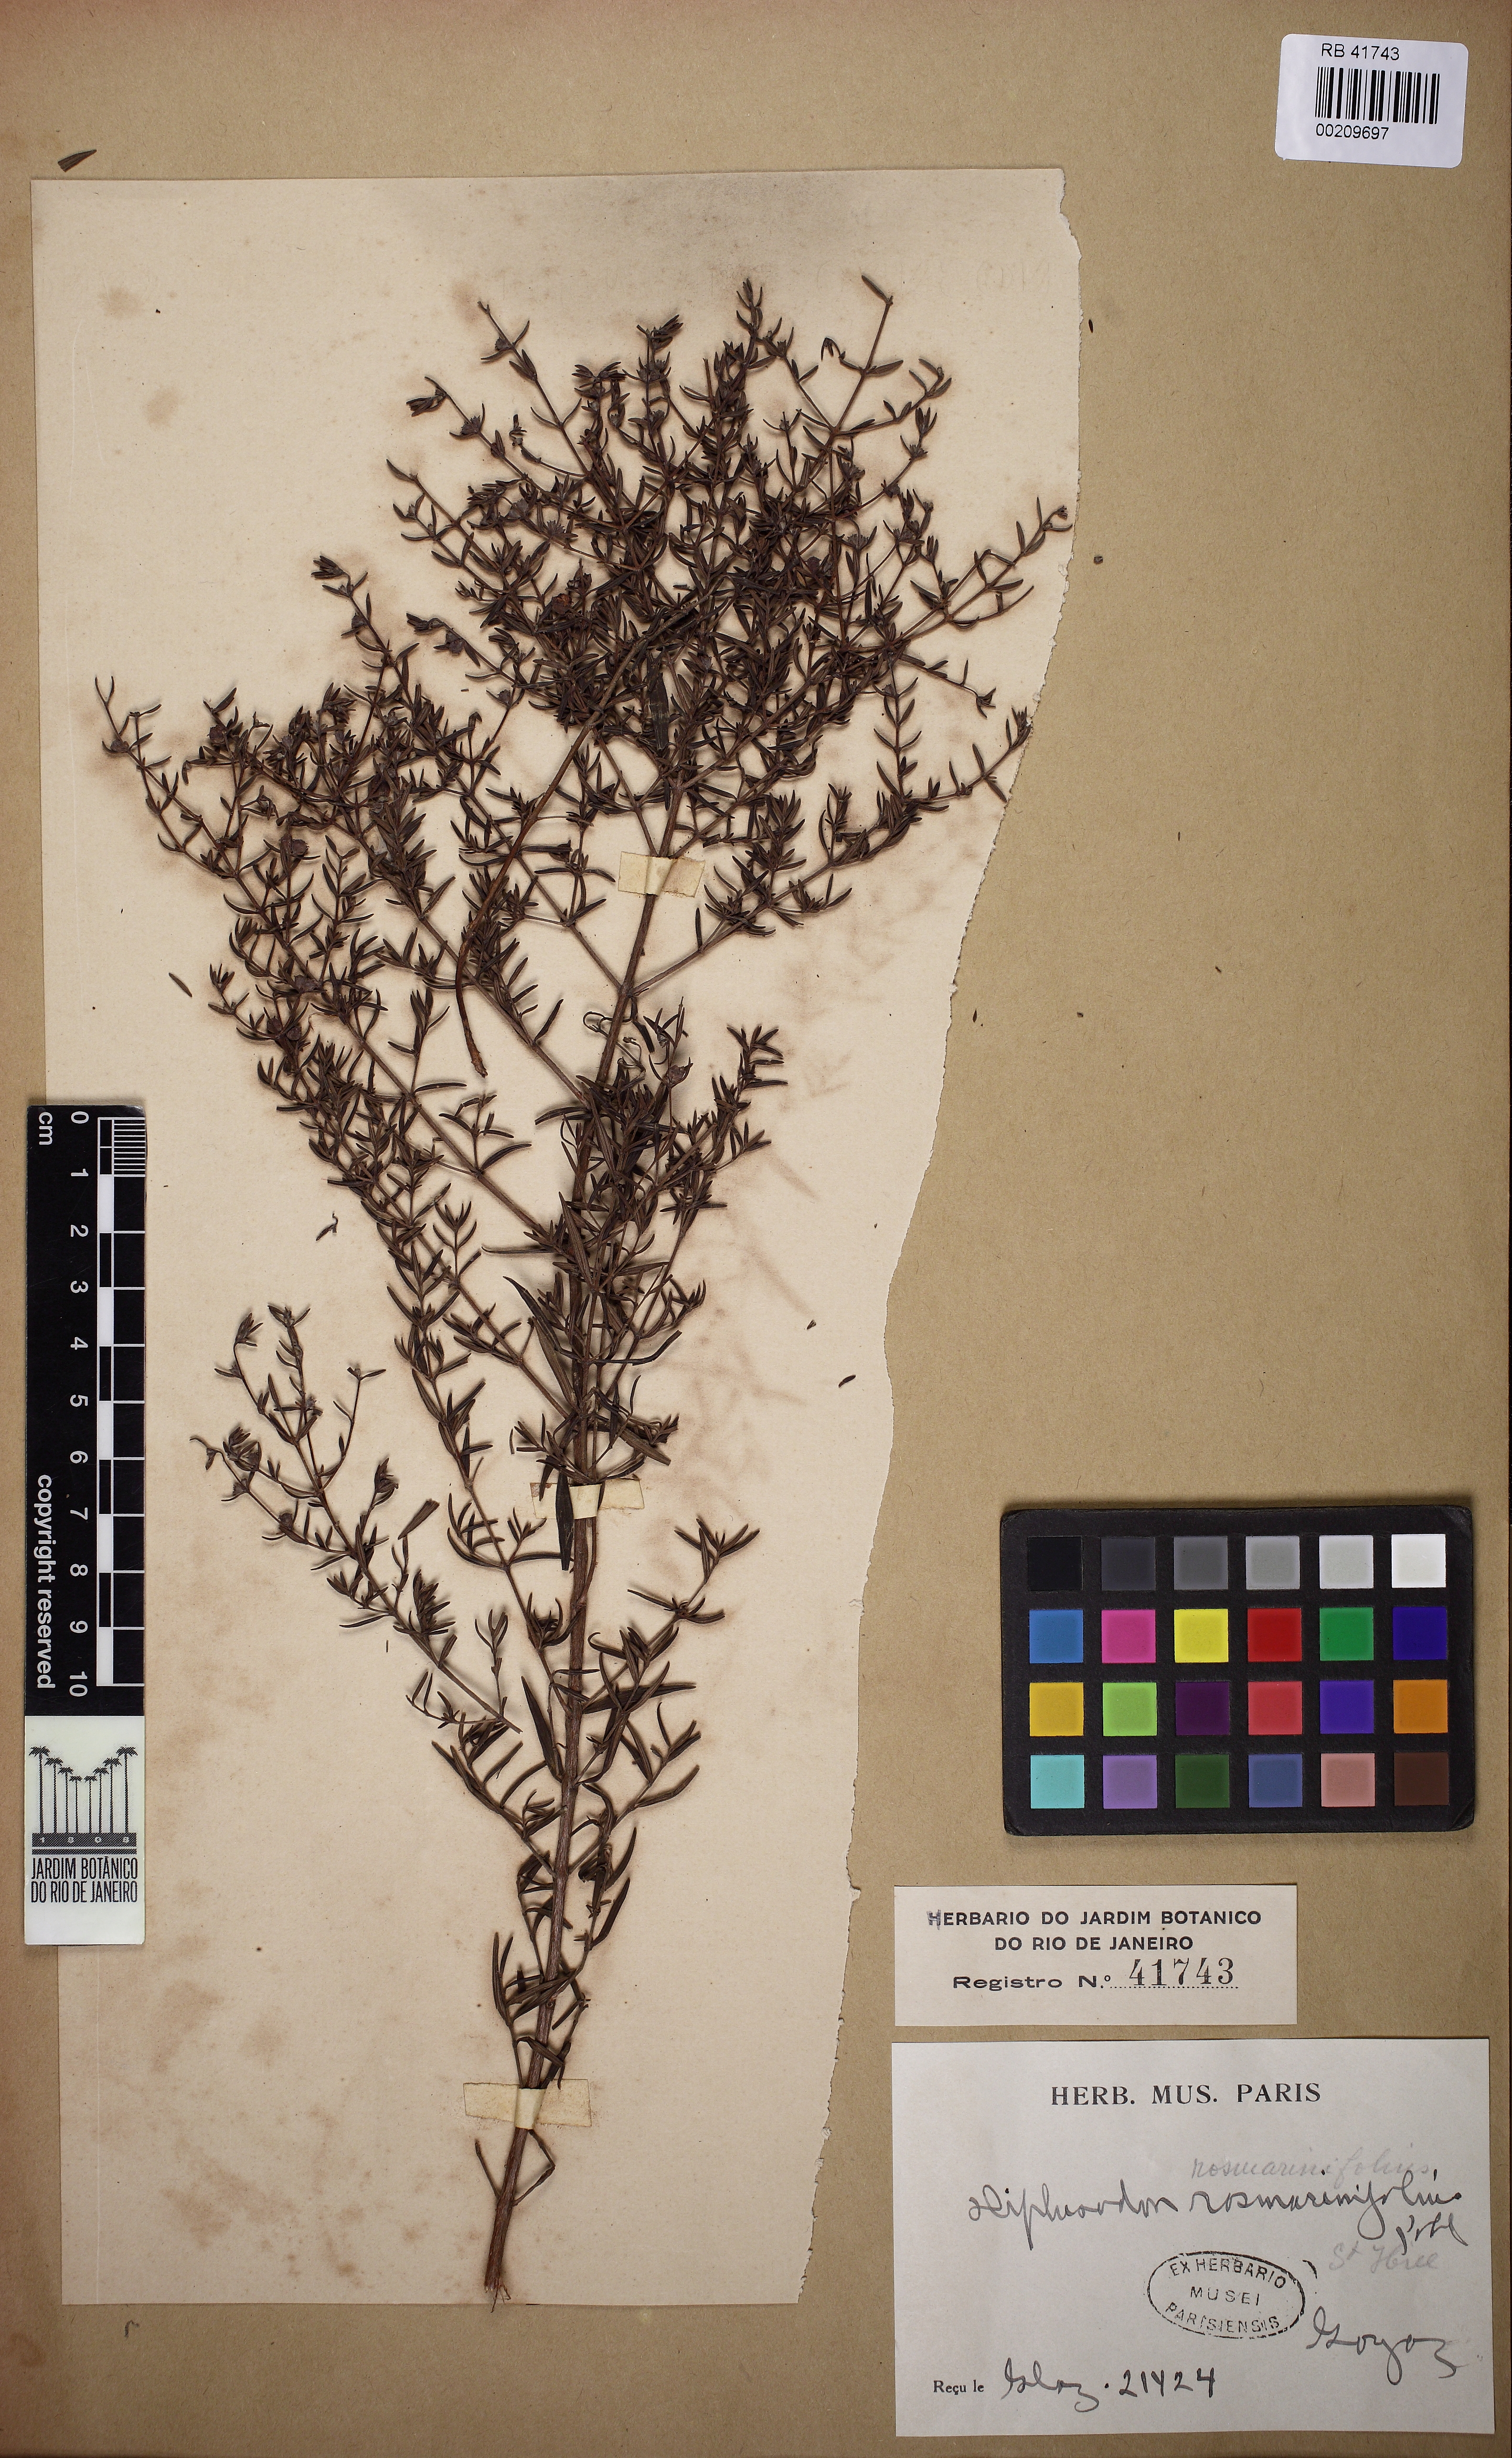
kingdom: Plantae
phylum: Tracheophyta
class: Magnoliopsida
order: Myrtales
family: Lythraceae
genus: Diplusodon
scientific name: Diplusodon rosmarinifolius
